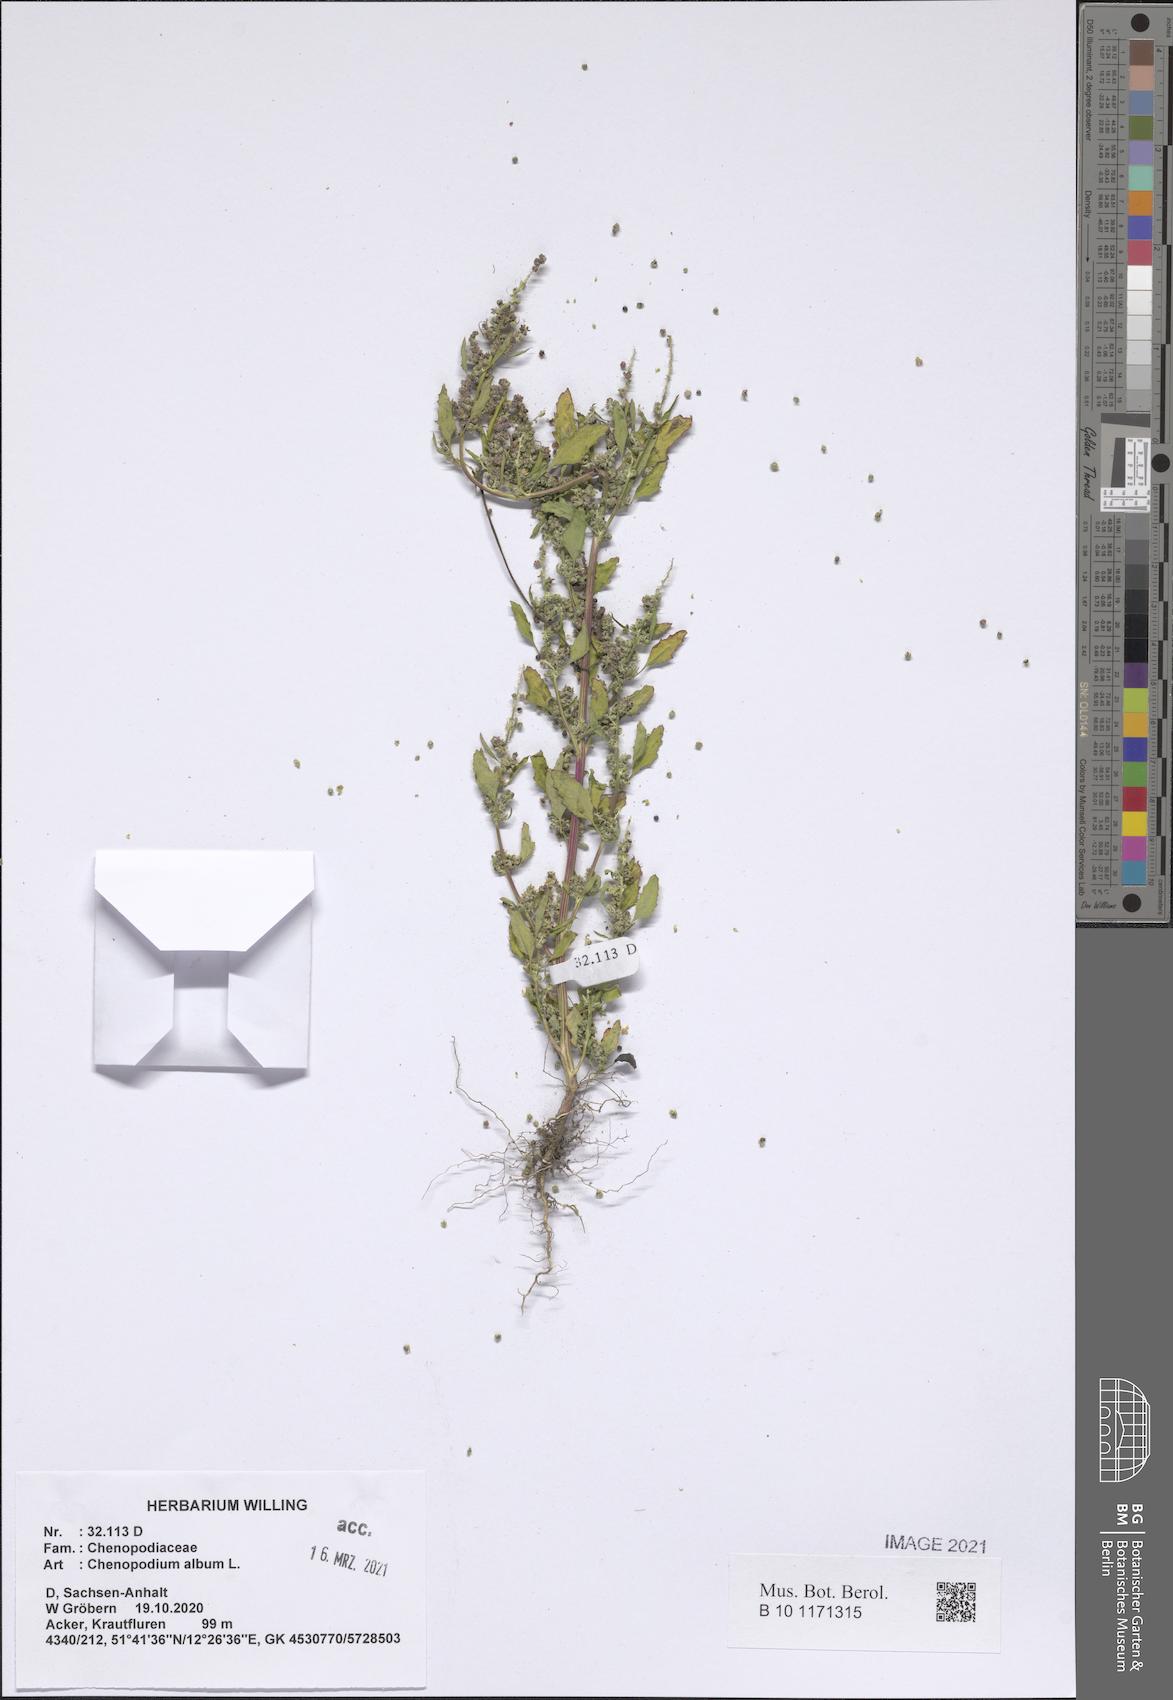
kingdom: Plantae
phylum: Tracheophyta
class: Magnoliopsida
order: Caryophyllales
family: Amaranthaceae
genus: Chenopodium
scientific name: Chenopodium album
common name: Fat-hen
